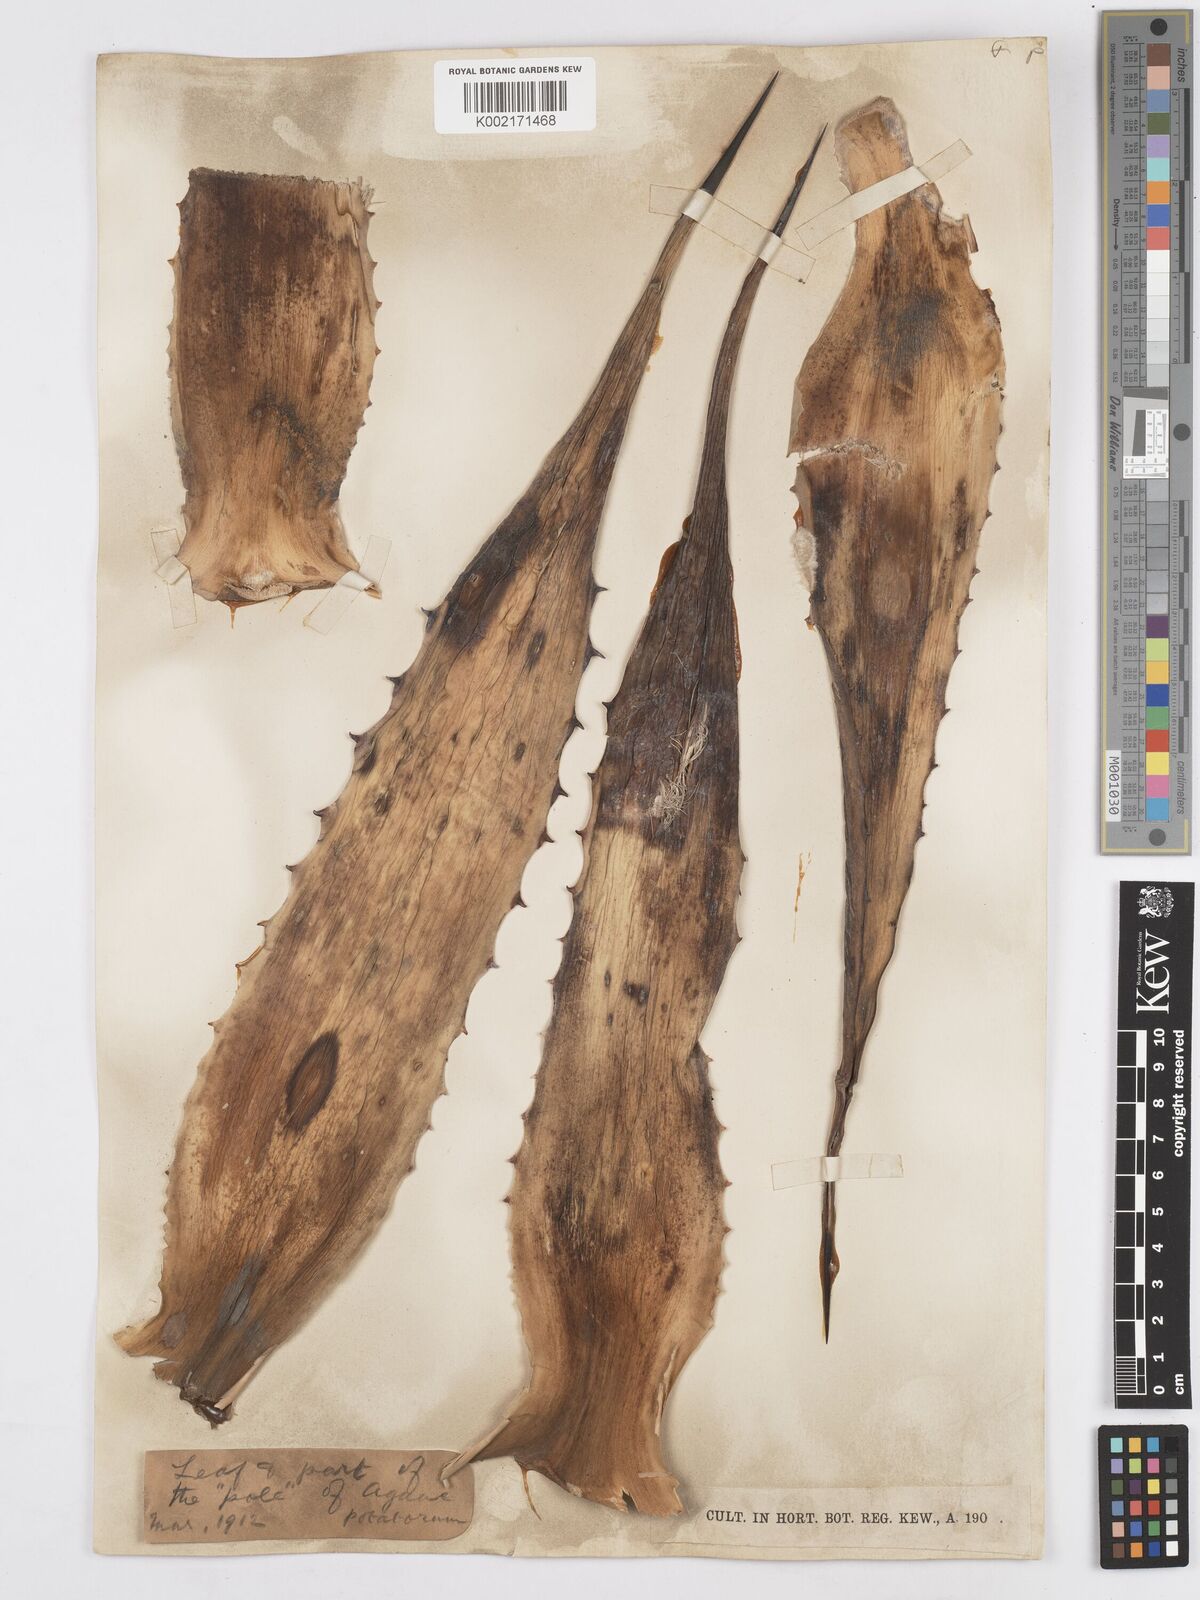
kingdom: Plantae
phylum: Tracheophyta
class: Liliopsida
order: Asparagales
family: Asparagaceae
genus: Agave
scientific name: Agave potatorum
